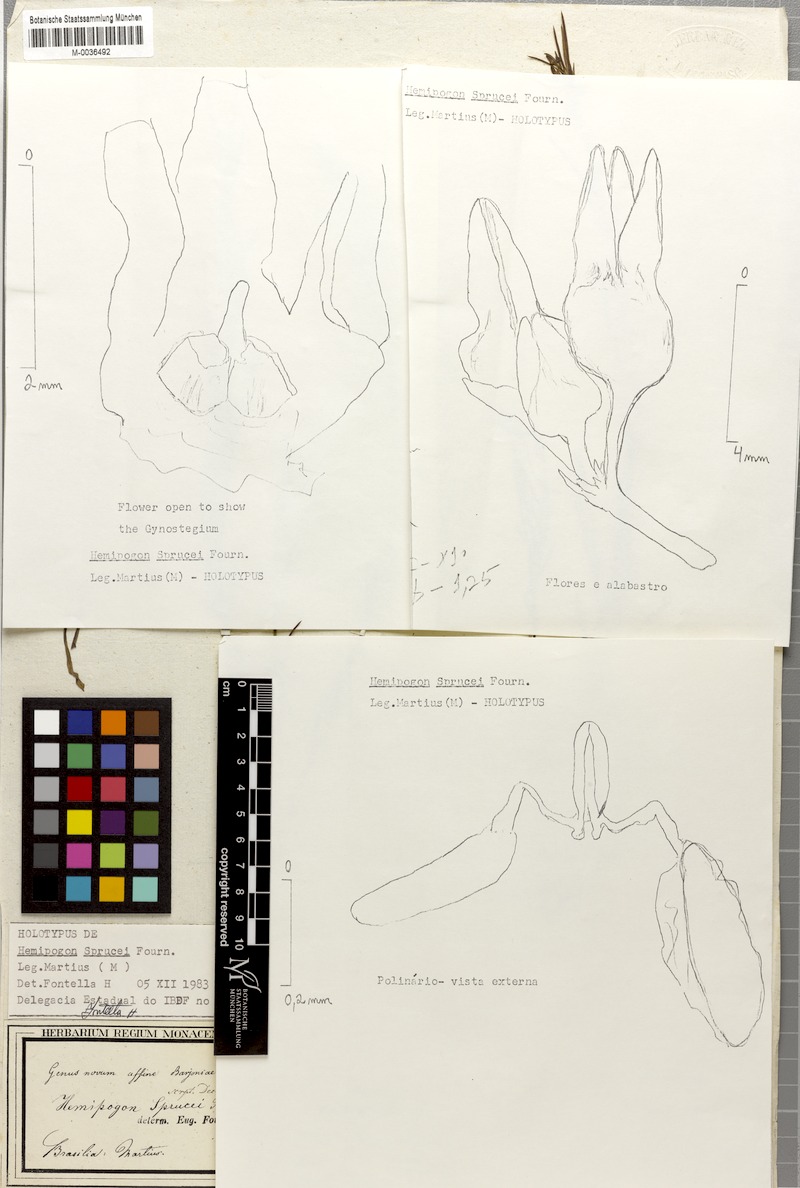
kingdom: Plantae
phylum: Tracheophyta
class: Magnoliopsida
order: Gentianales
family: Apocynaceae
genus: Hemipogon
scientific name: Hemipogon sprucei
